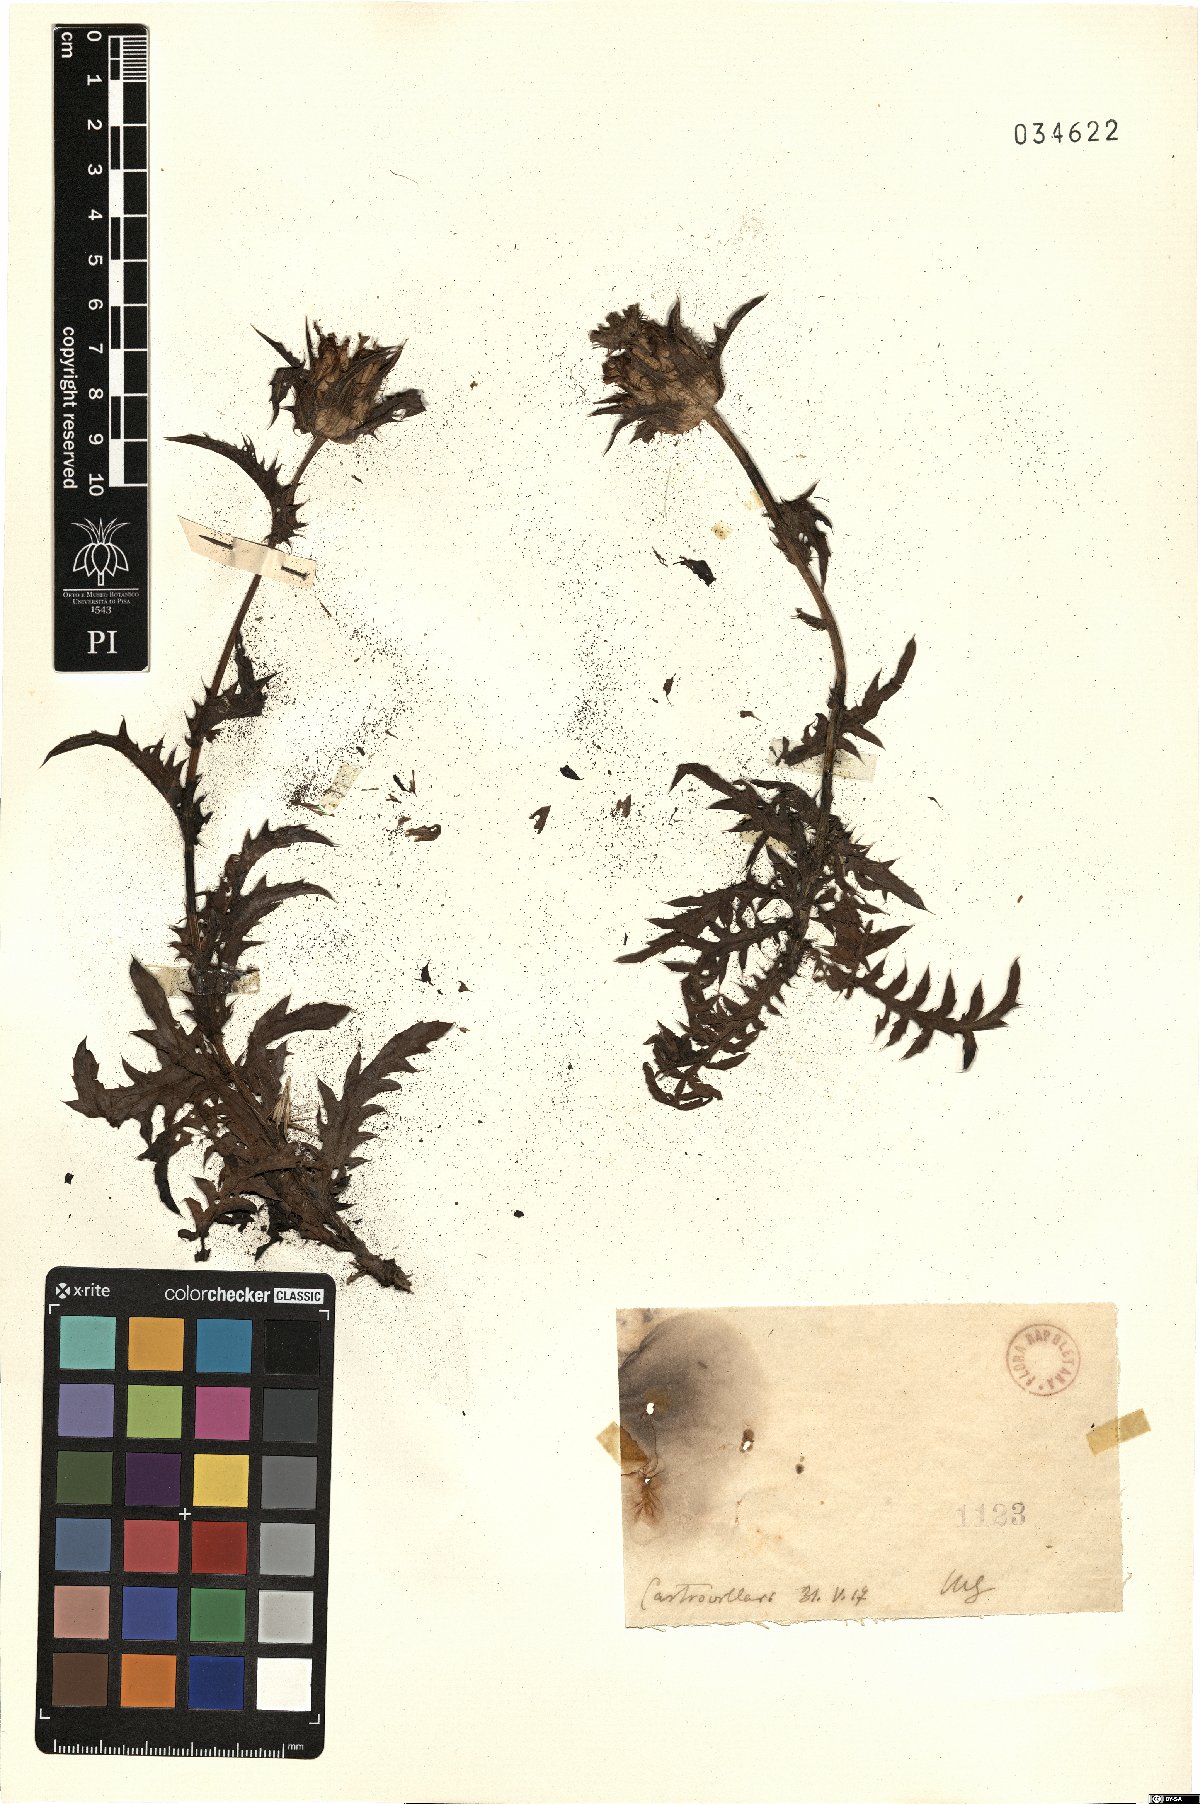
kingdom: Plantae
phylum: Tracheophyta
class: Magnoliopsida
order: Asterales
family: Asteraceae
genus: Carthamus
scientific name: Carthamus
